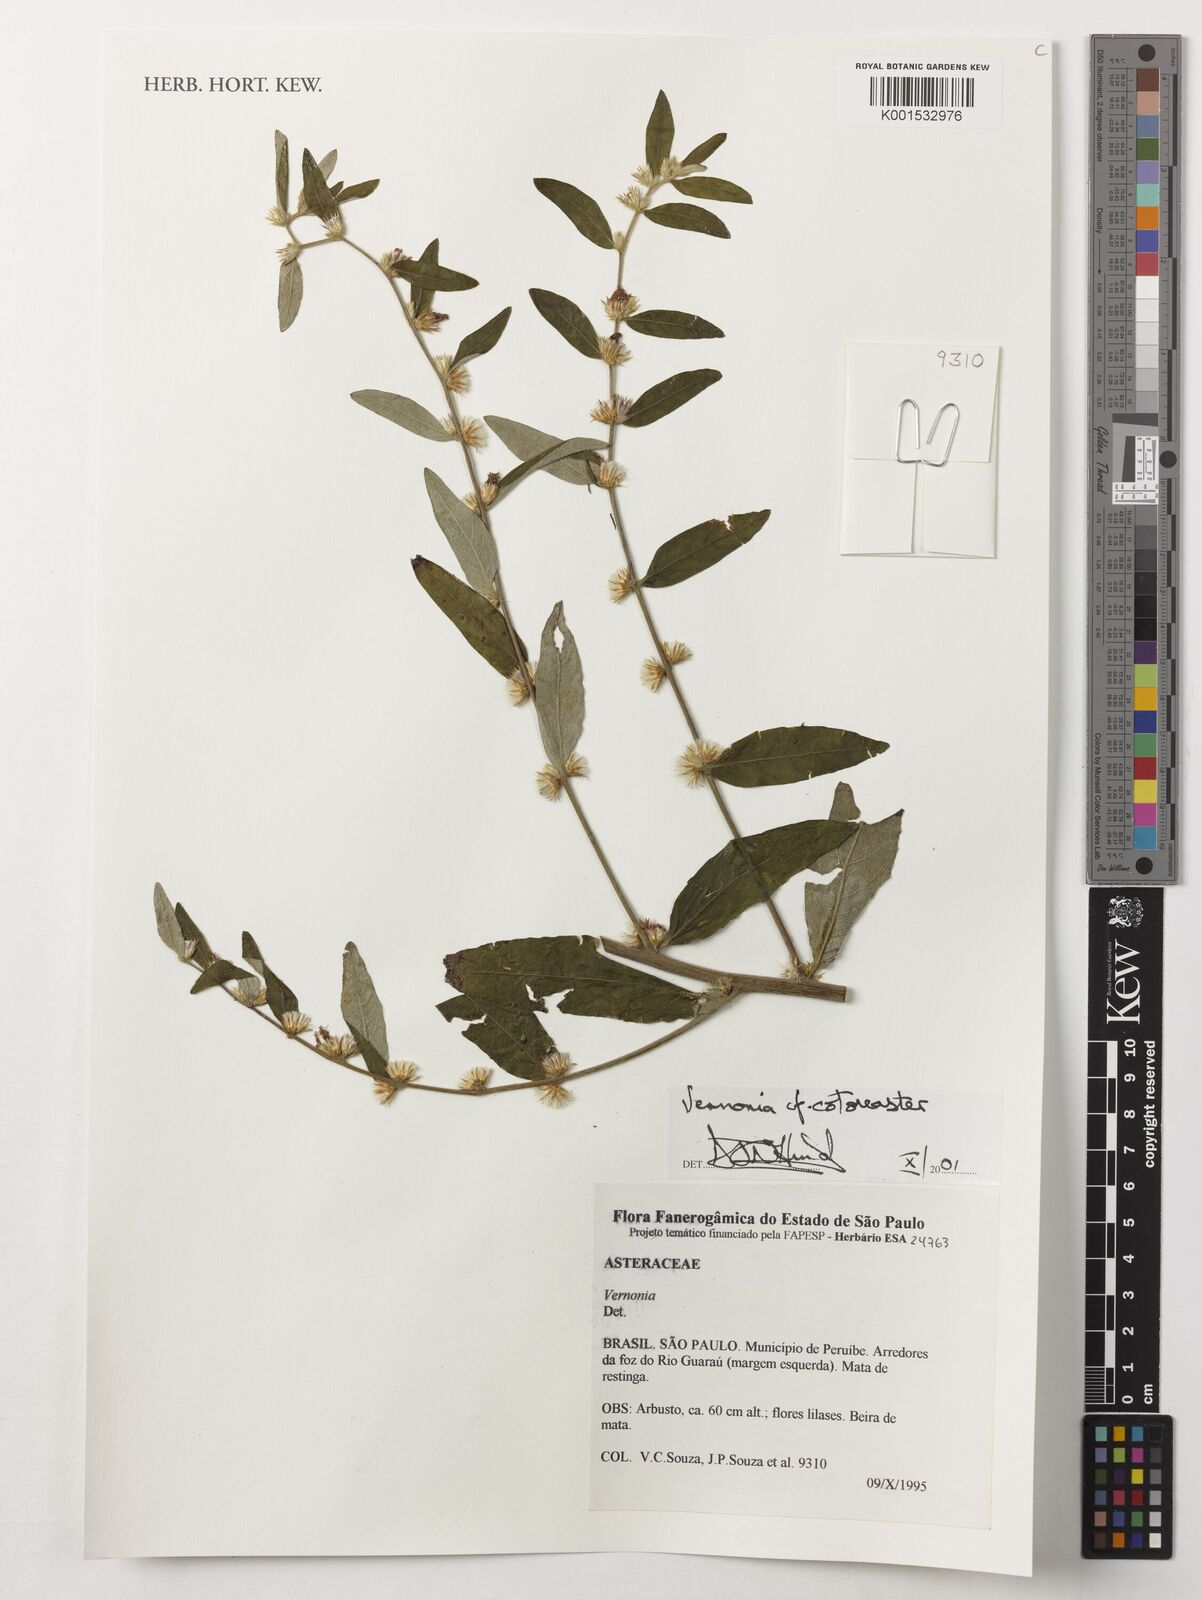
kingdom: Plantae
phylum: Tracheophyta
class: Magnoliopsida
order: Asterales
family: Asteraceae
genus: Lepidaploa
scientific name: Lepidaploa cotoneaster
